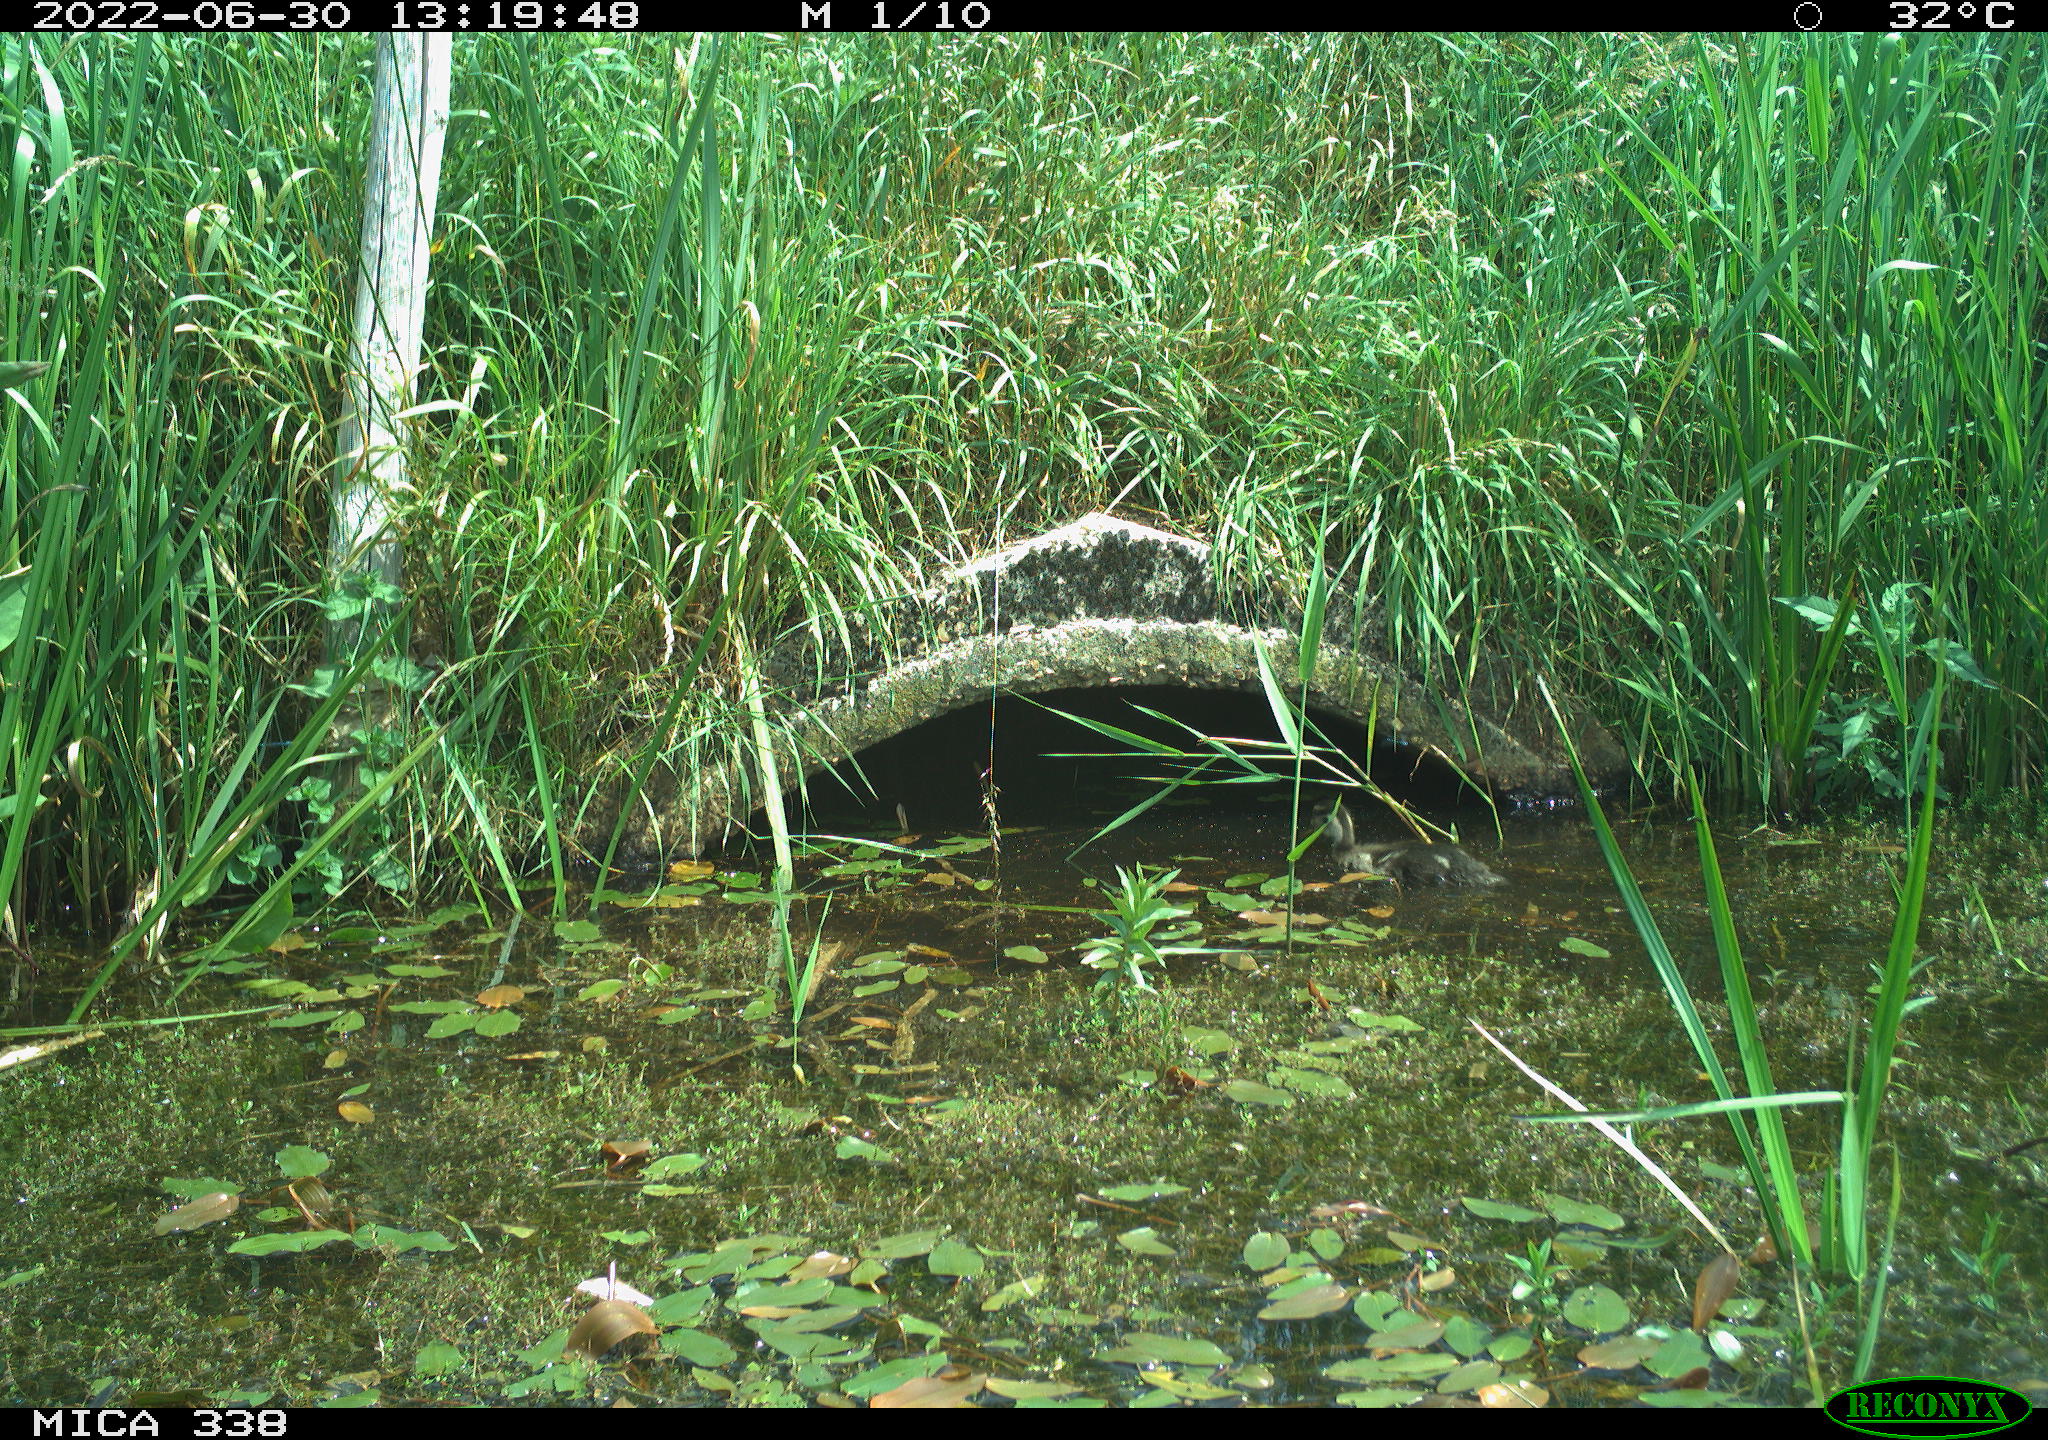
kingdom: Animalia
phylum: Chordata
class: Aves
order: Anseriformes
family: Anatidae
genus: Anas
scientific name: Anas platyrhynchos
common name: Mallard
